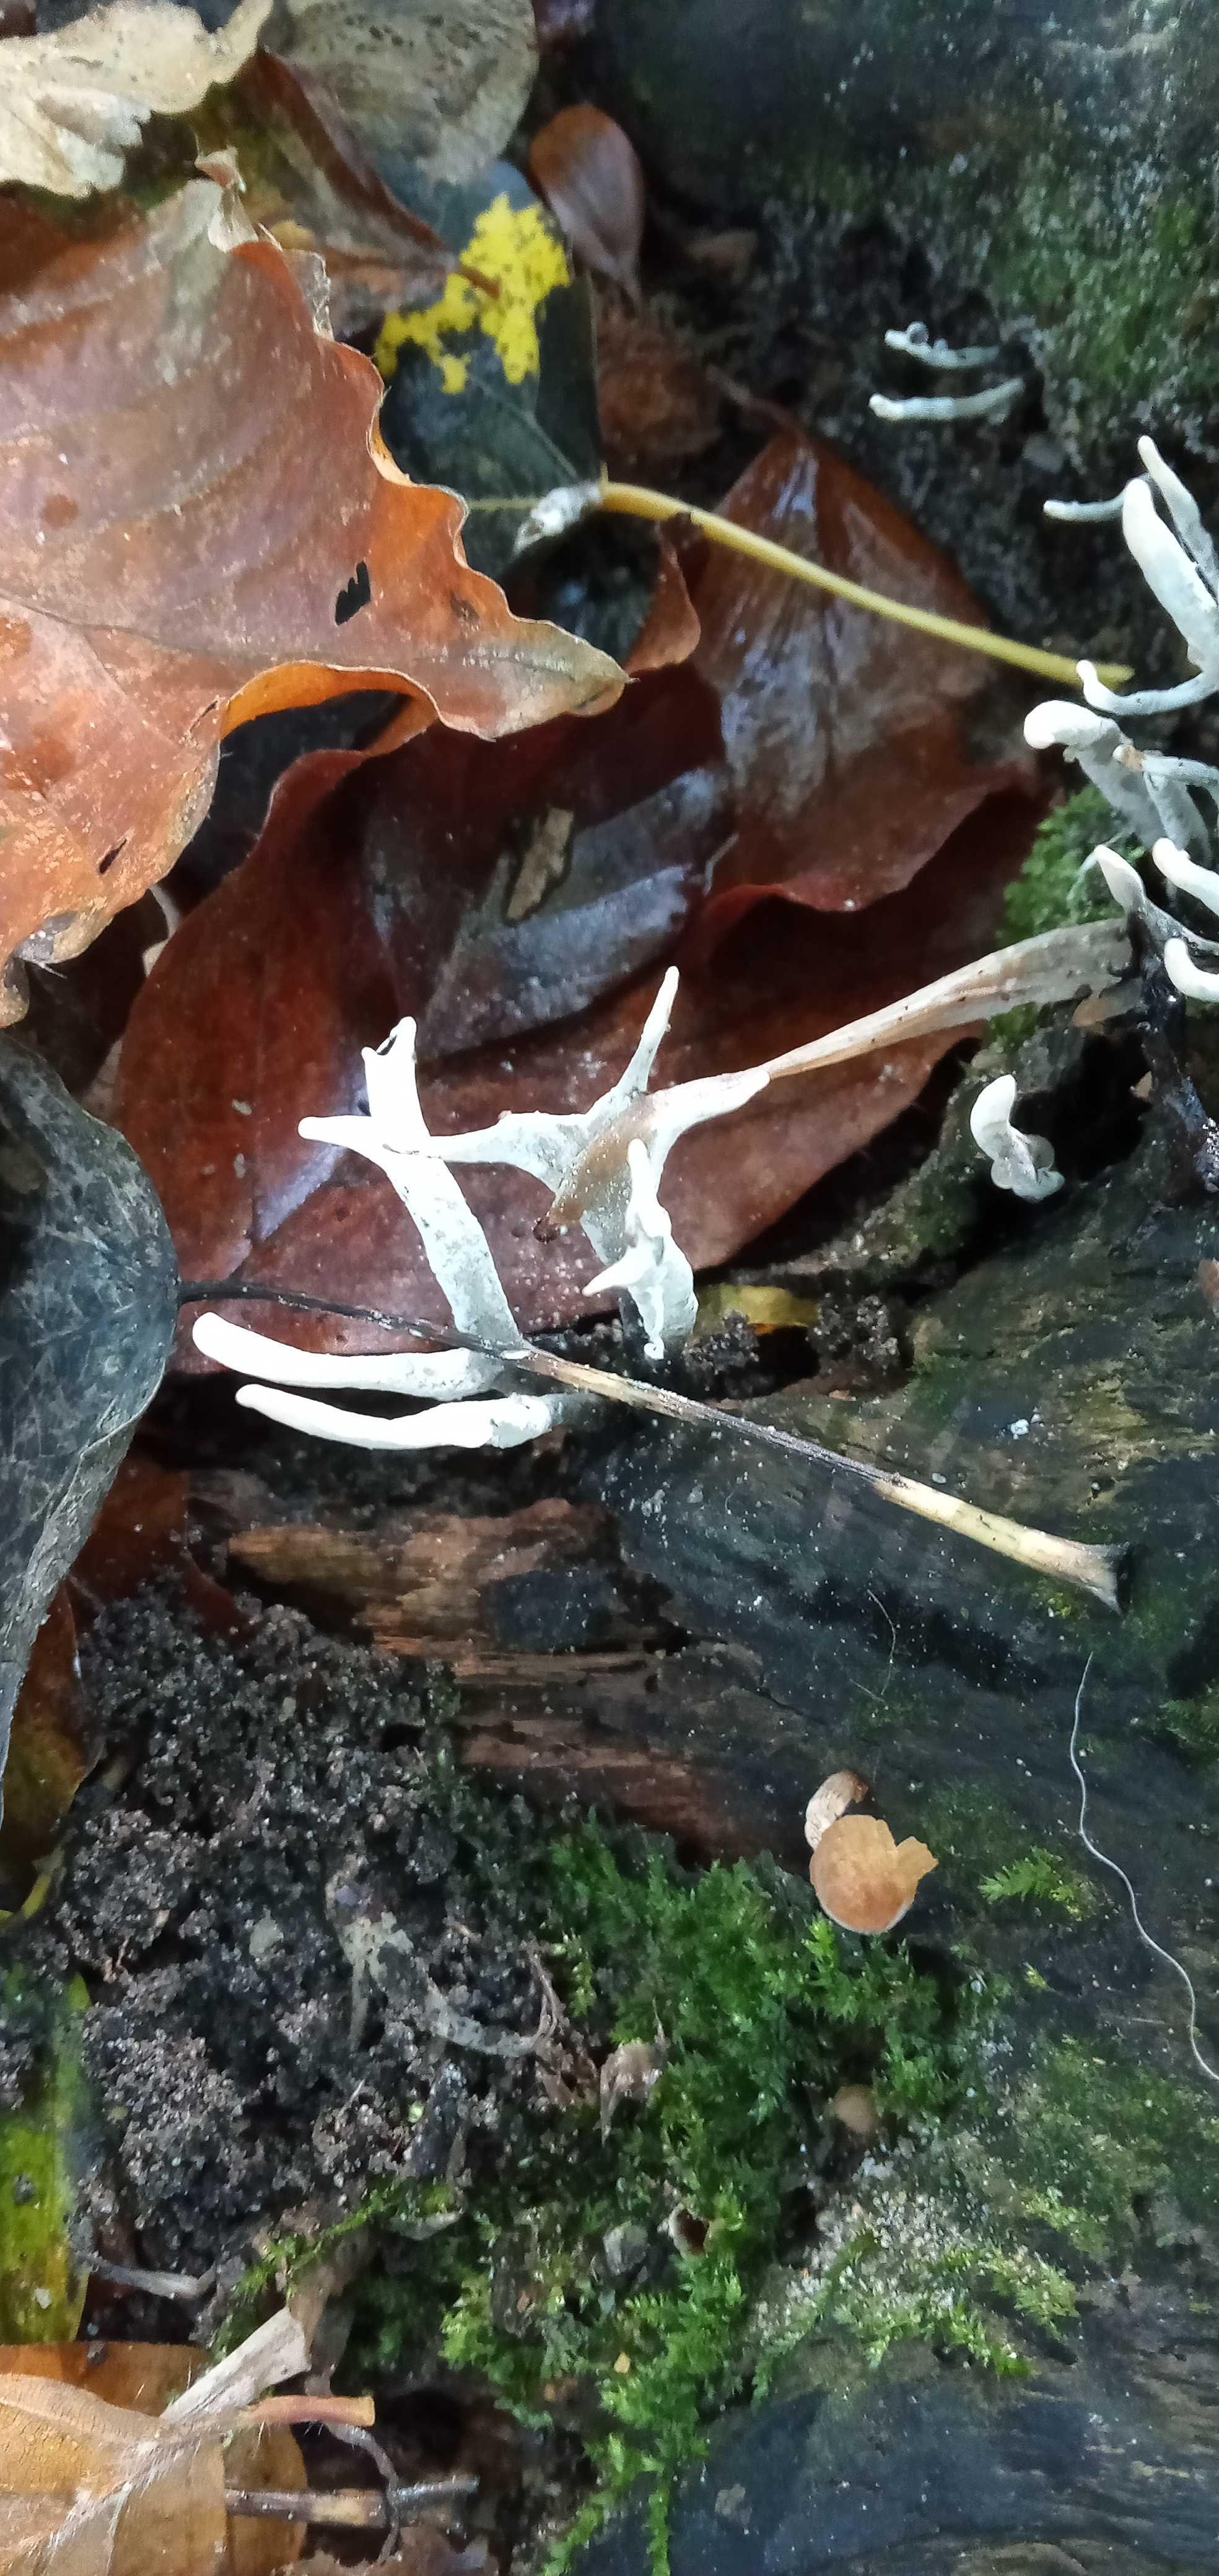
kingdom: Fungi
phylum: Ascomycota
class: Sordariomycetes
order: Xylariales
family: Xylariaceae
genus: Xylaria
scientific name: Xylaria hypoxylon
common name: grenet stødsvamp
